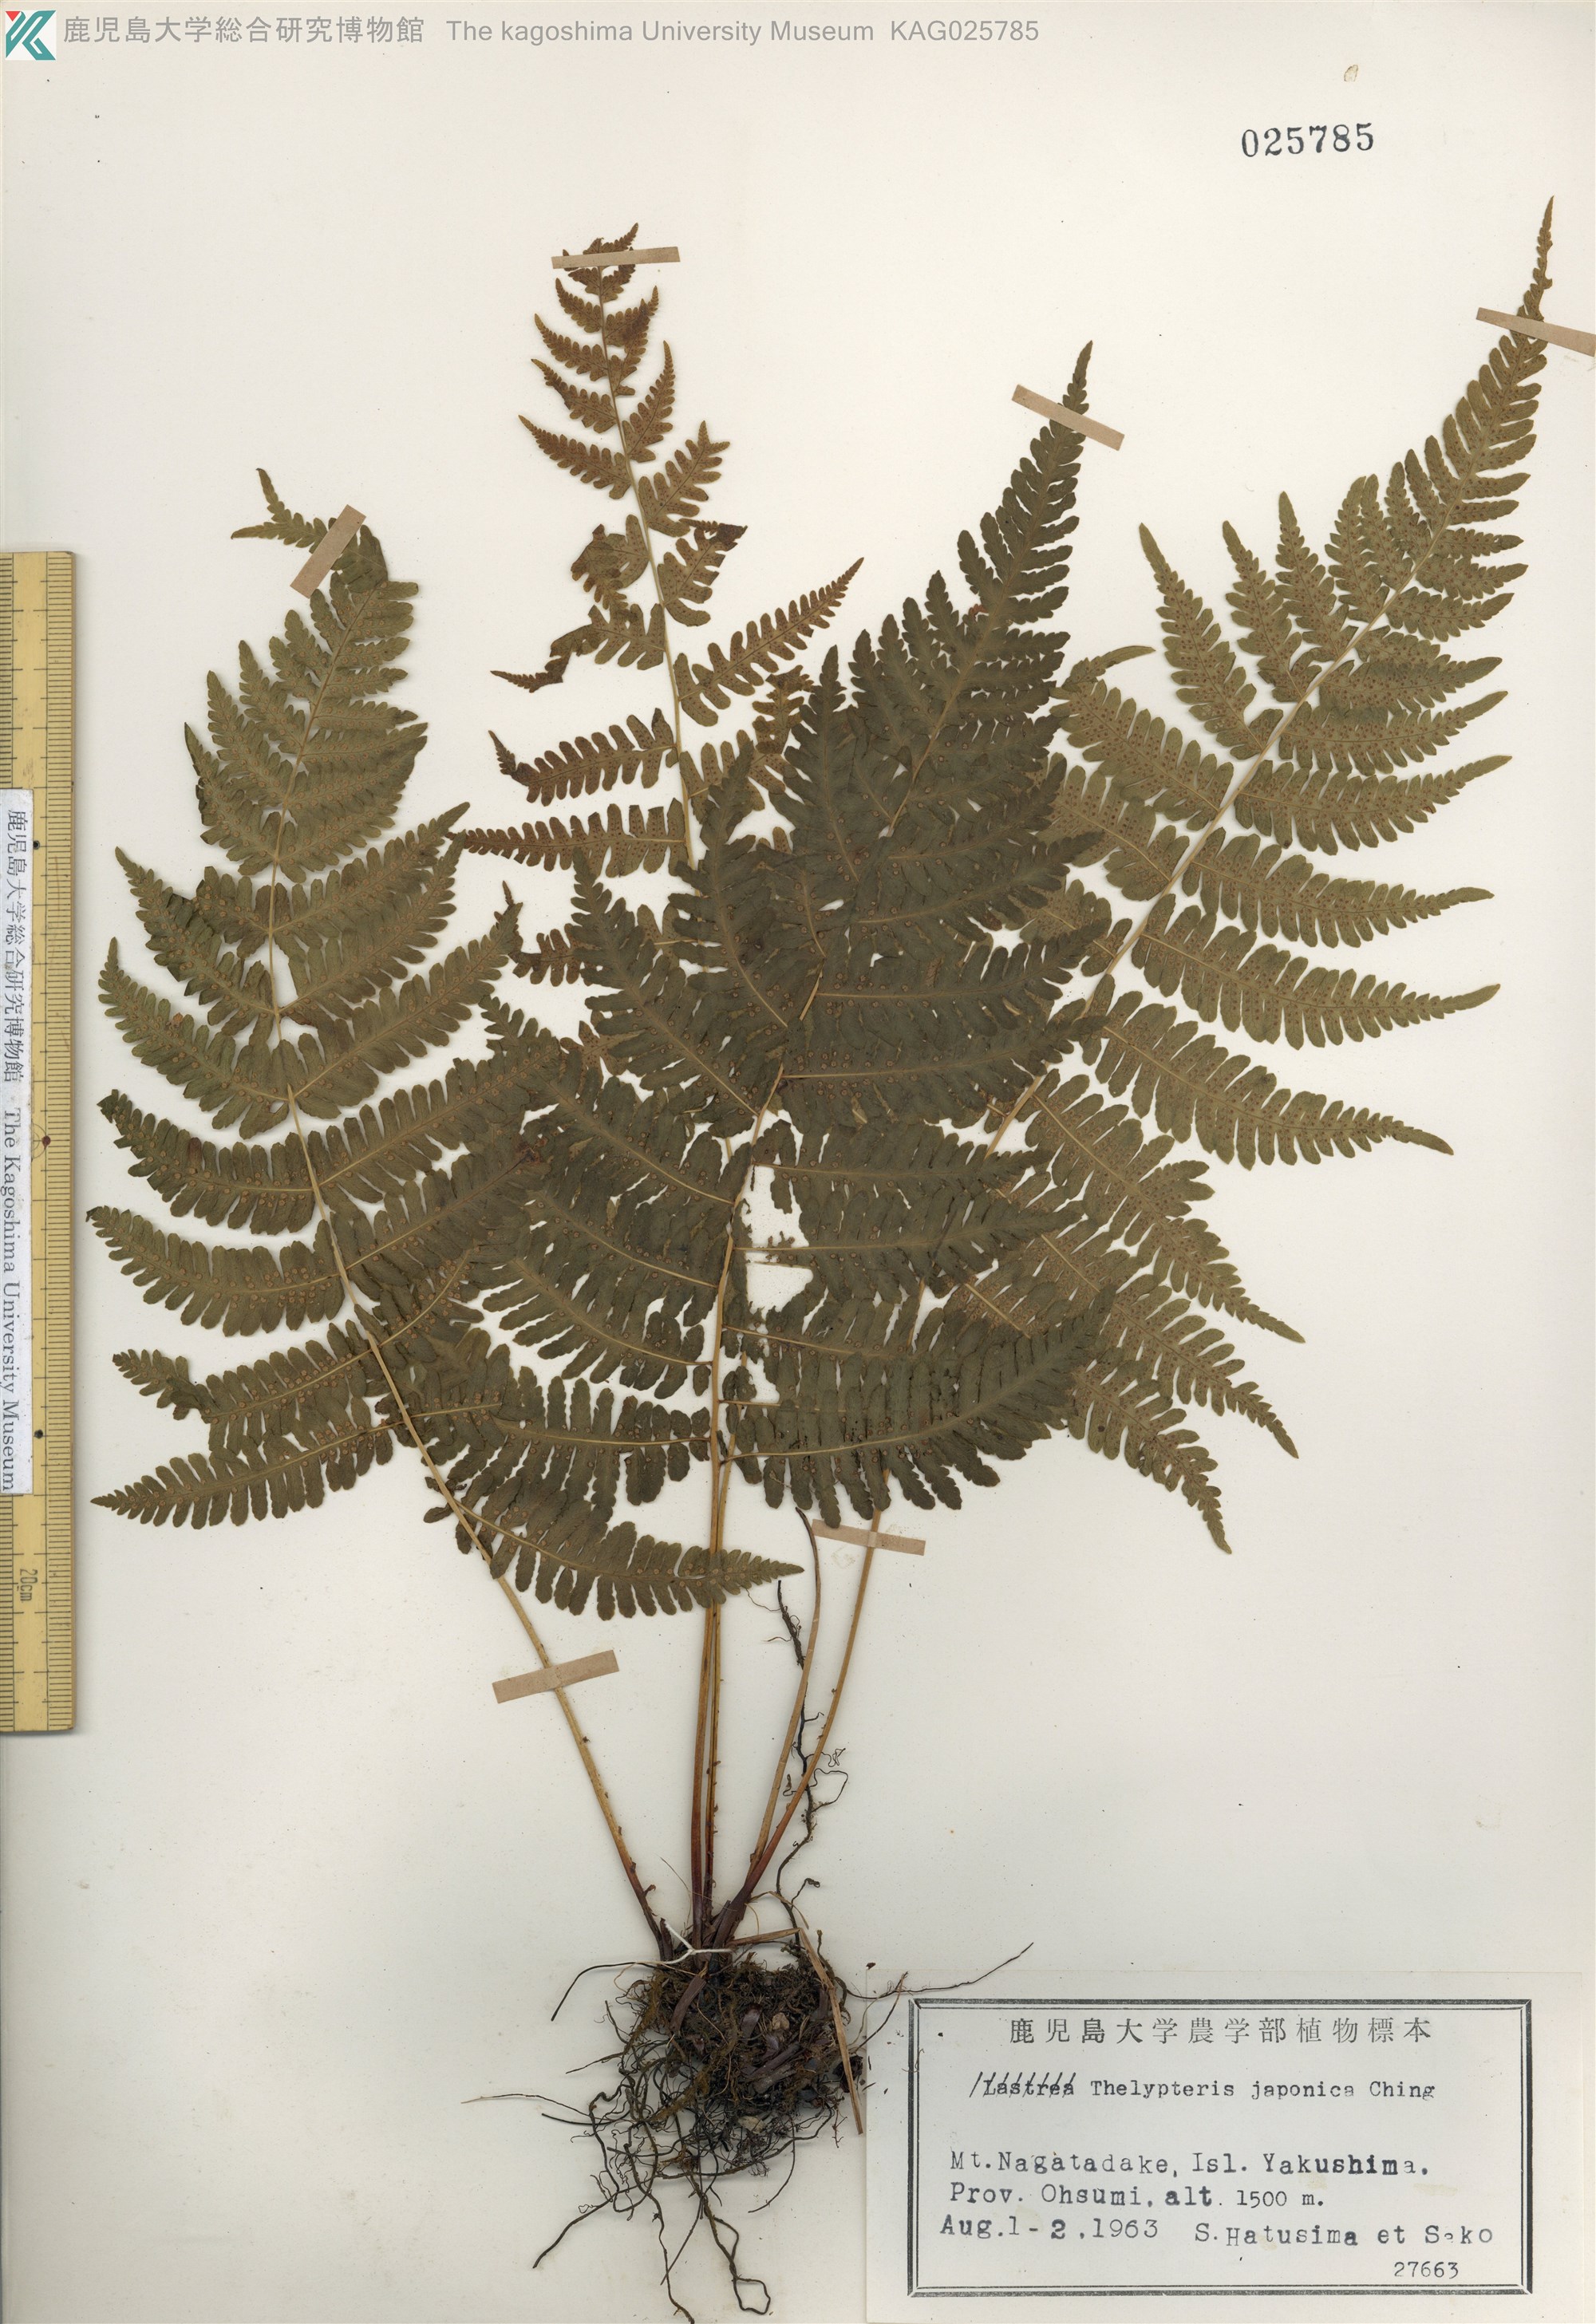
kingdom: Plantae
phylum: Tracheophyta
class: Polypodiopsida
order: Polypodiales
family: Thelypteridaceae
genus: Coryphopteris
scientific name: Coryphopteris japonica
